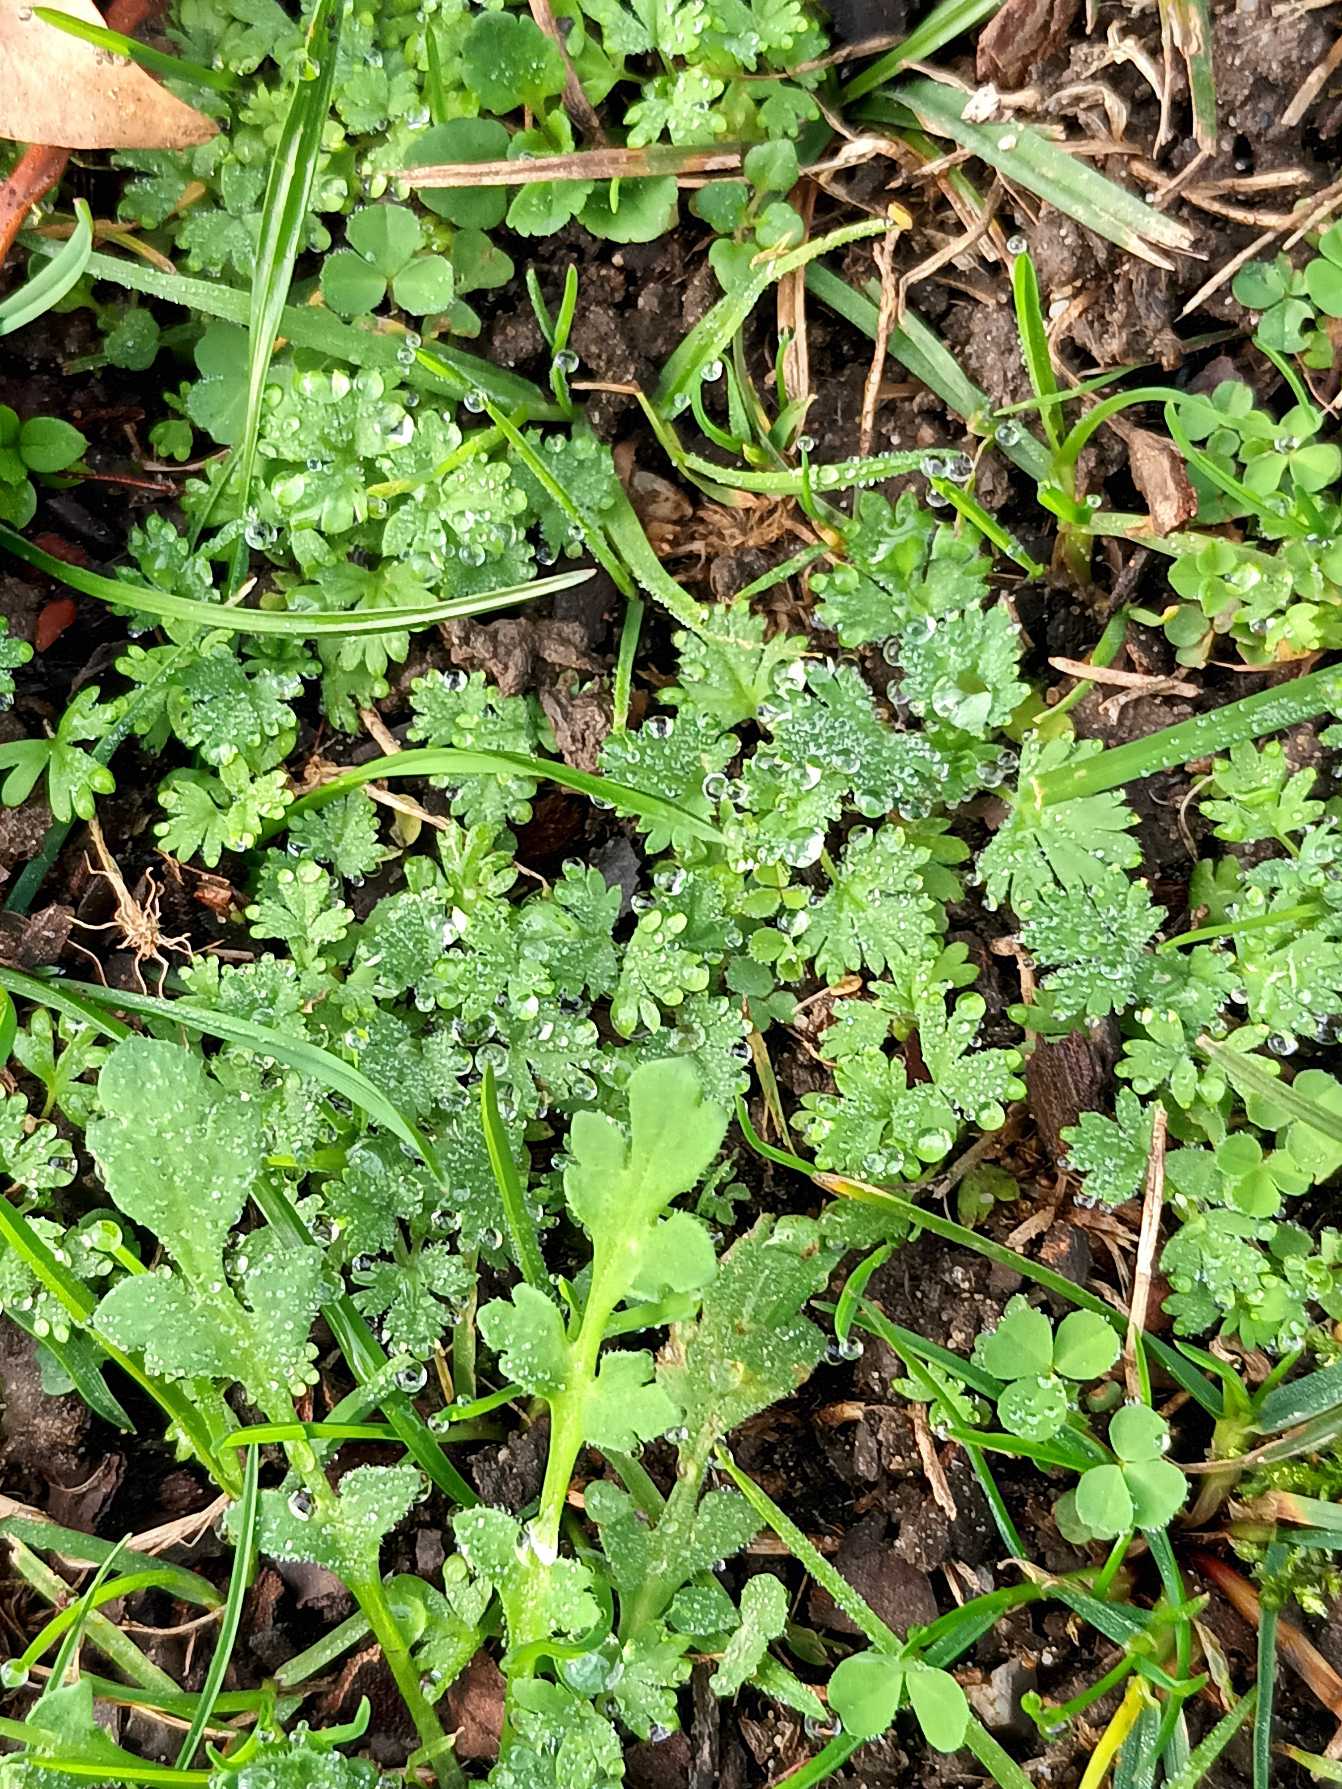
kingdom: Plantae
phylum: Tracheophyta
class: Magnoliopsida
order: Rosales
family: Rosaceae
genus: Aphanes
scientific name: Aphanes arvensis
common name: Dværgløvefod
